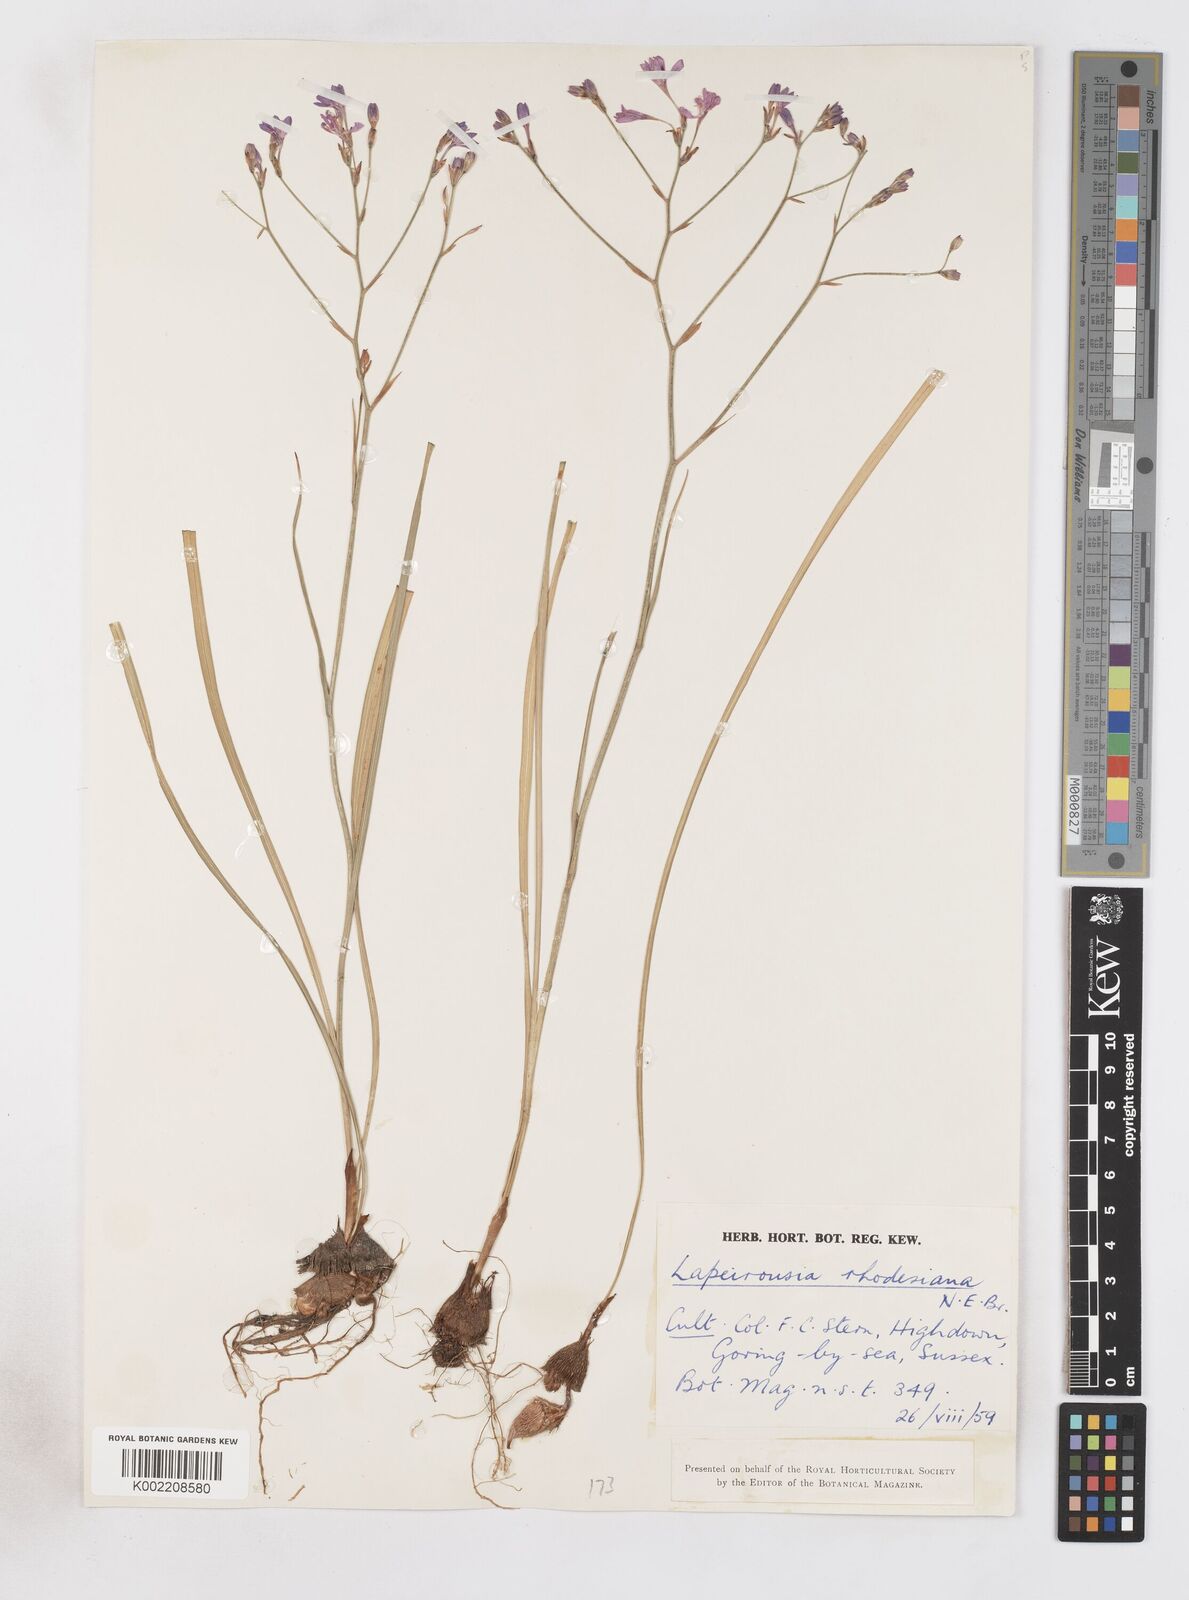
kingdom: Plantae
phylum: Tracheophyta
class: Liliopsida
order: Asparagales
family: Iridaceae
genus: Lapeirousia
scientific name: Lapeirousia
